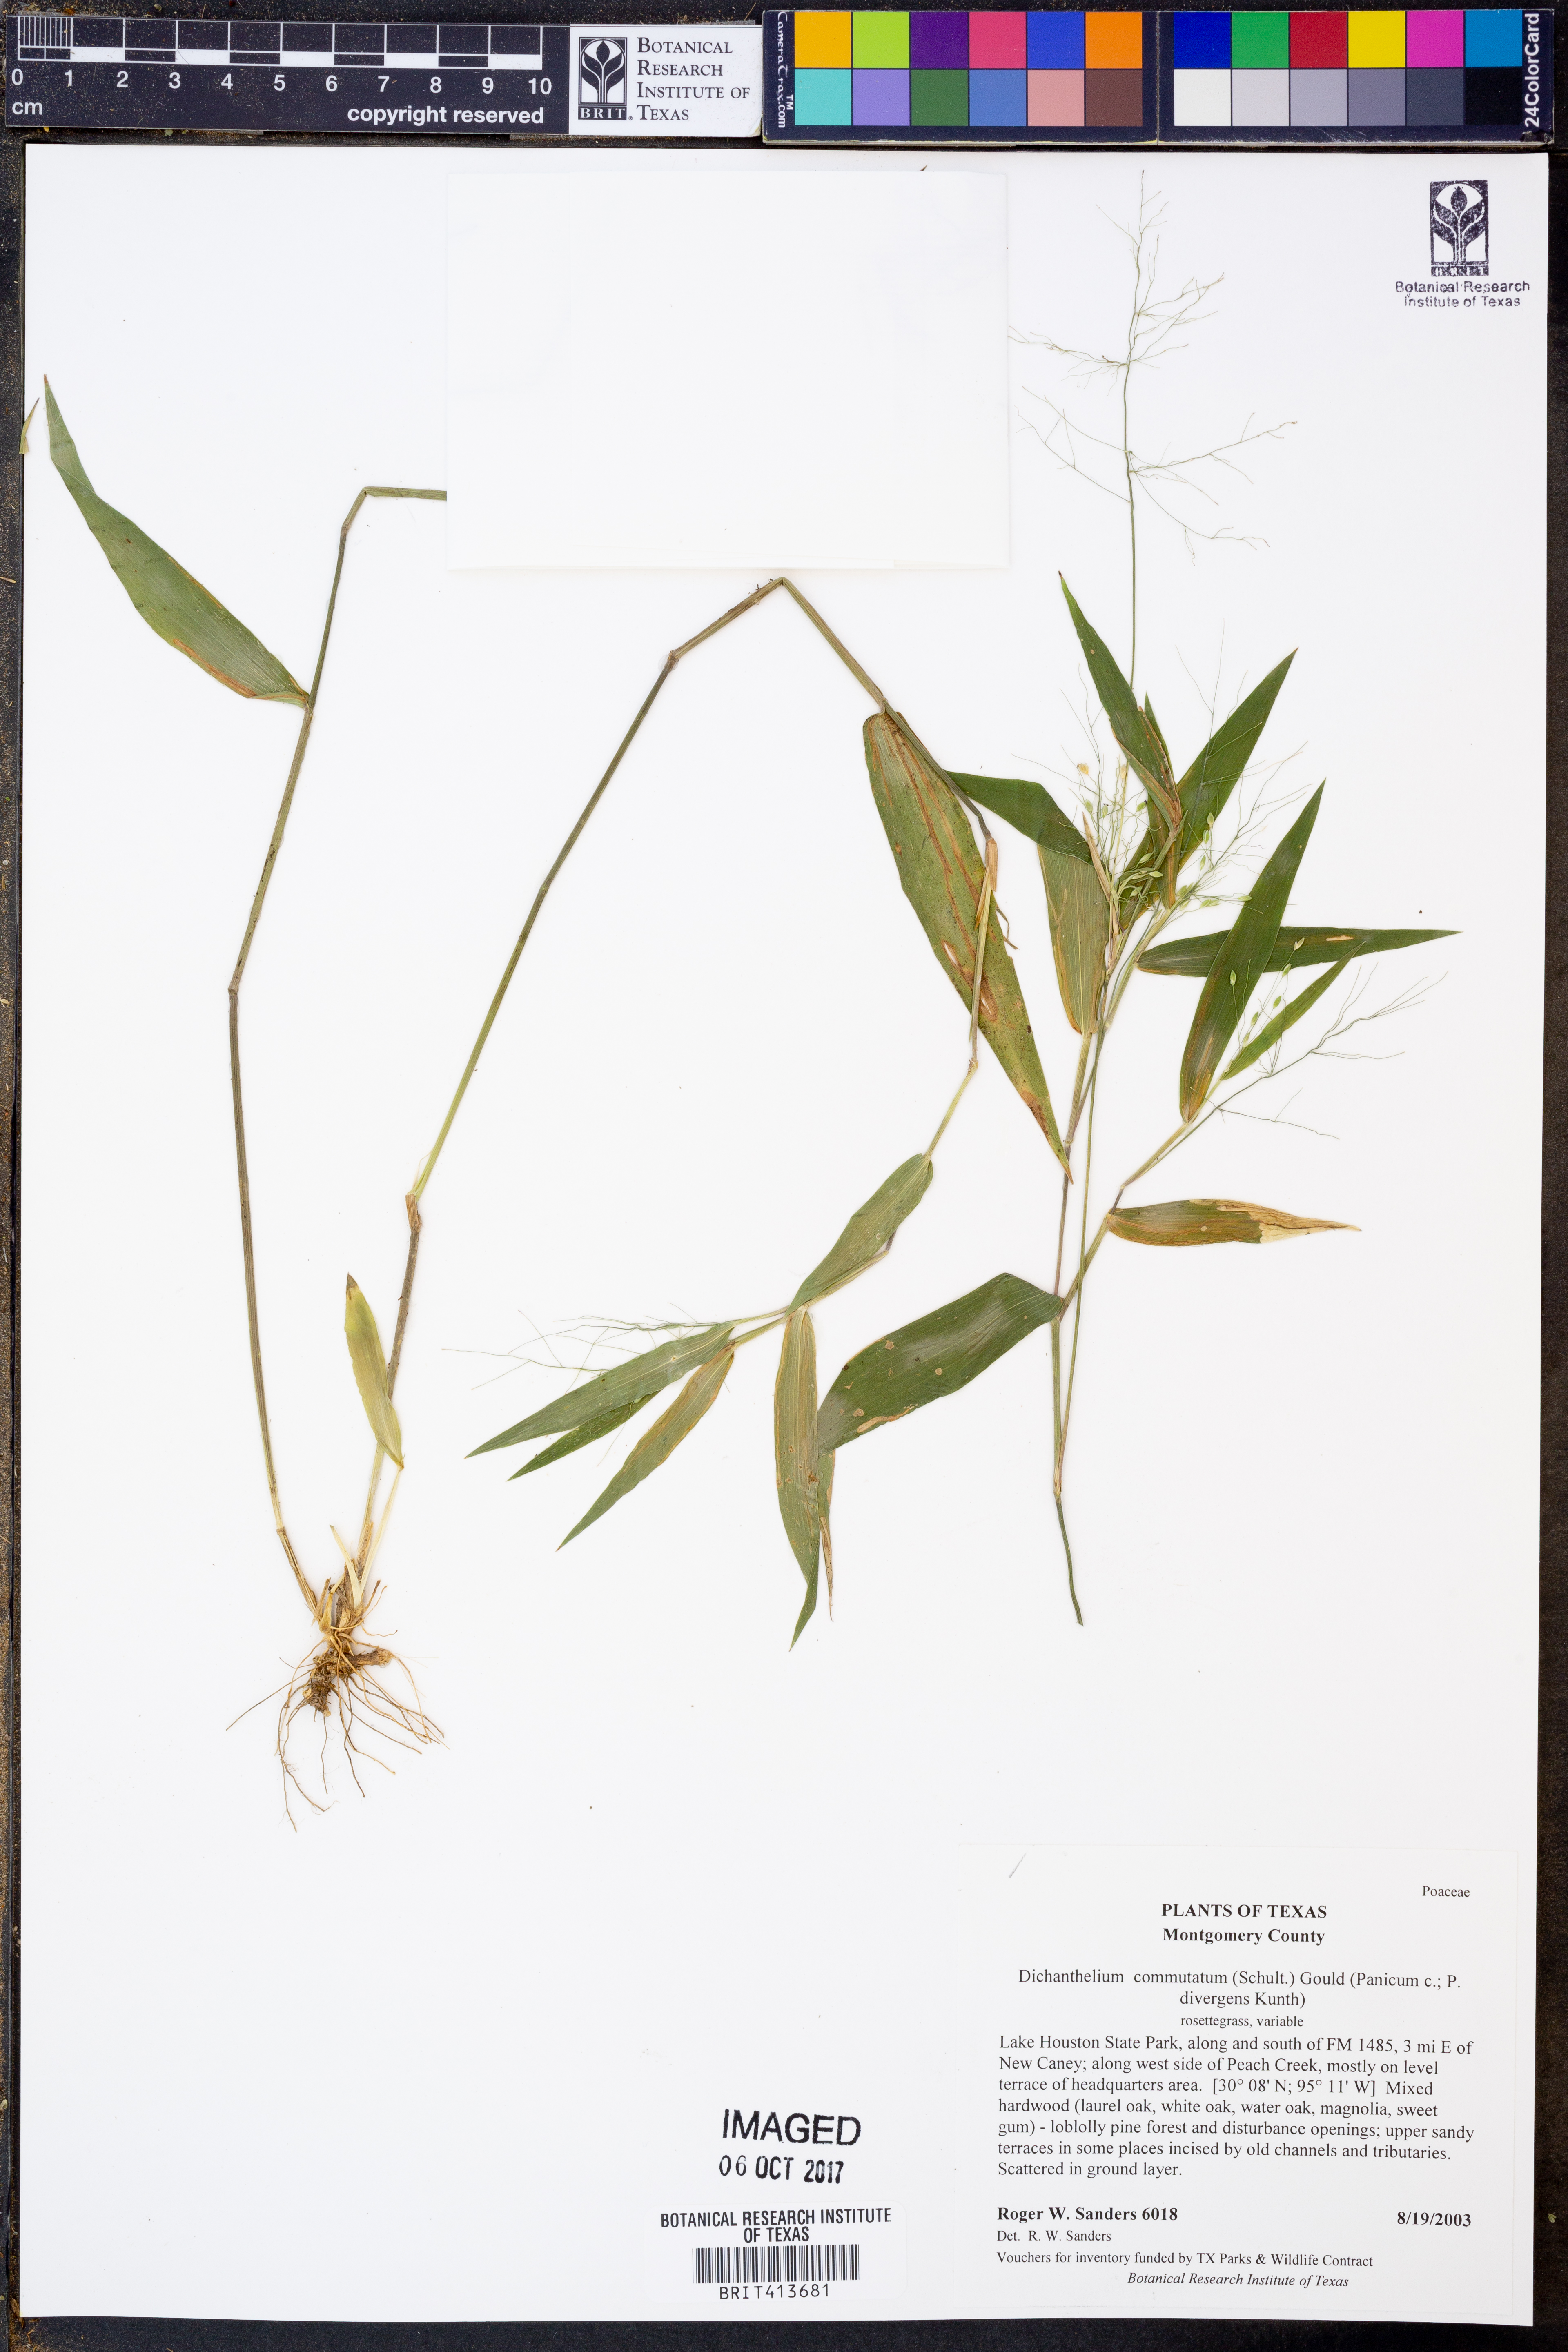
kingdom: Plantae
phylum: Tracheophyta
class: Liliopsida
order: Poales
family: Poaceae
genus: Dichanthelium
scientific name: Dichanthelium commutatum
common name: Variable witchgrass
